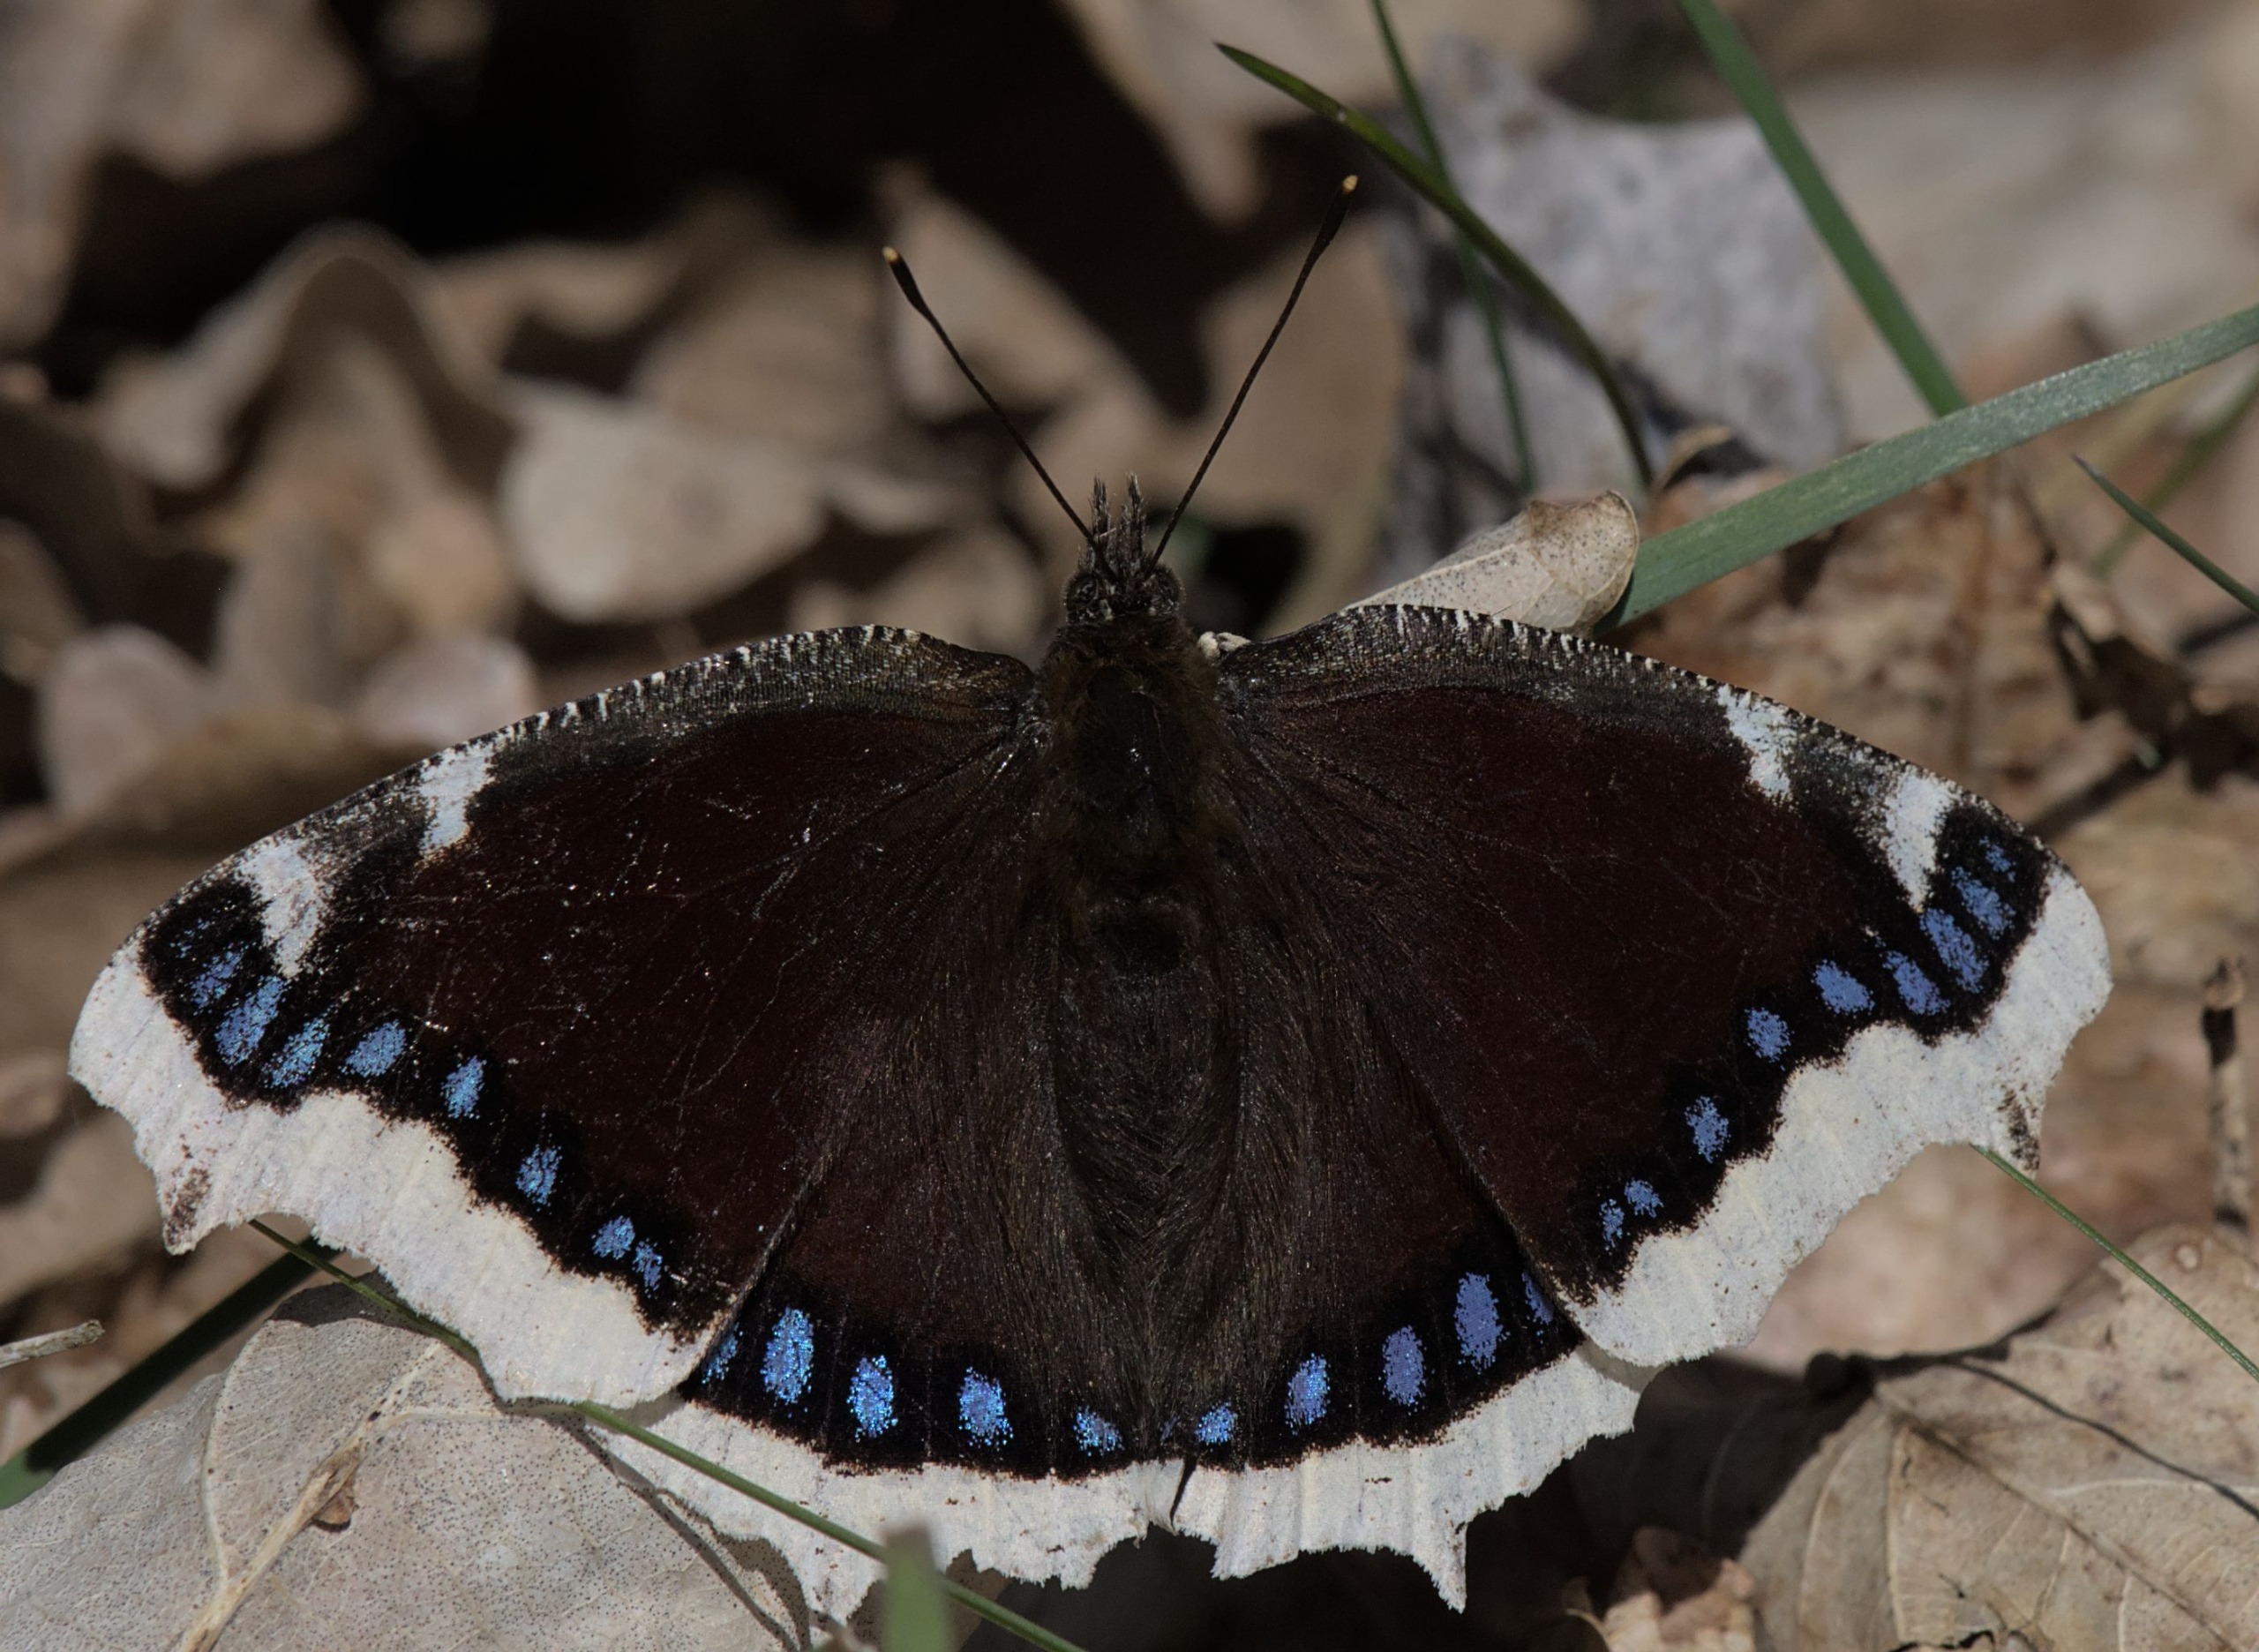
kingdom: Animalia
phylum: Arthropoda
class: Insecta
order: Lepidoptera
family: Nymphalidae
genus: Nymphalis
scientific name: Nymphalis antiopa
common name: Sørgekåbe
